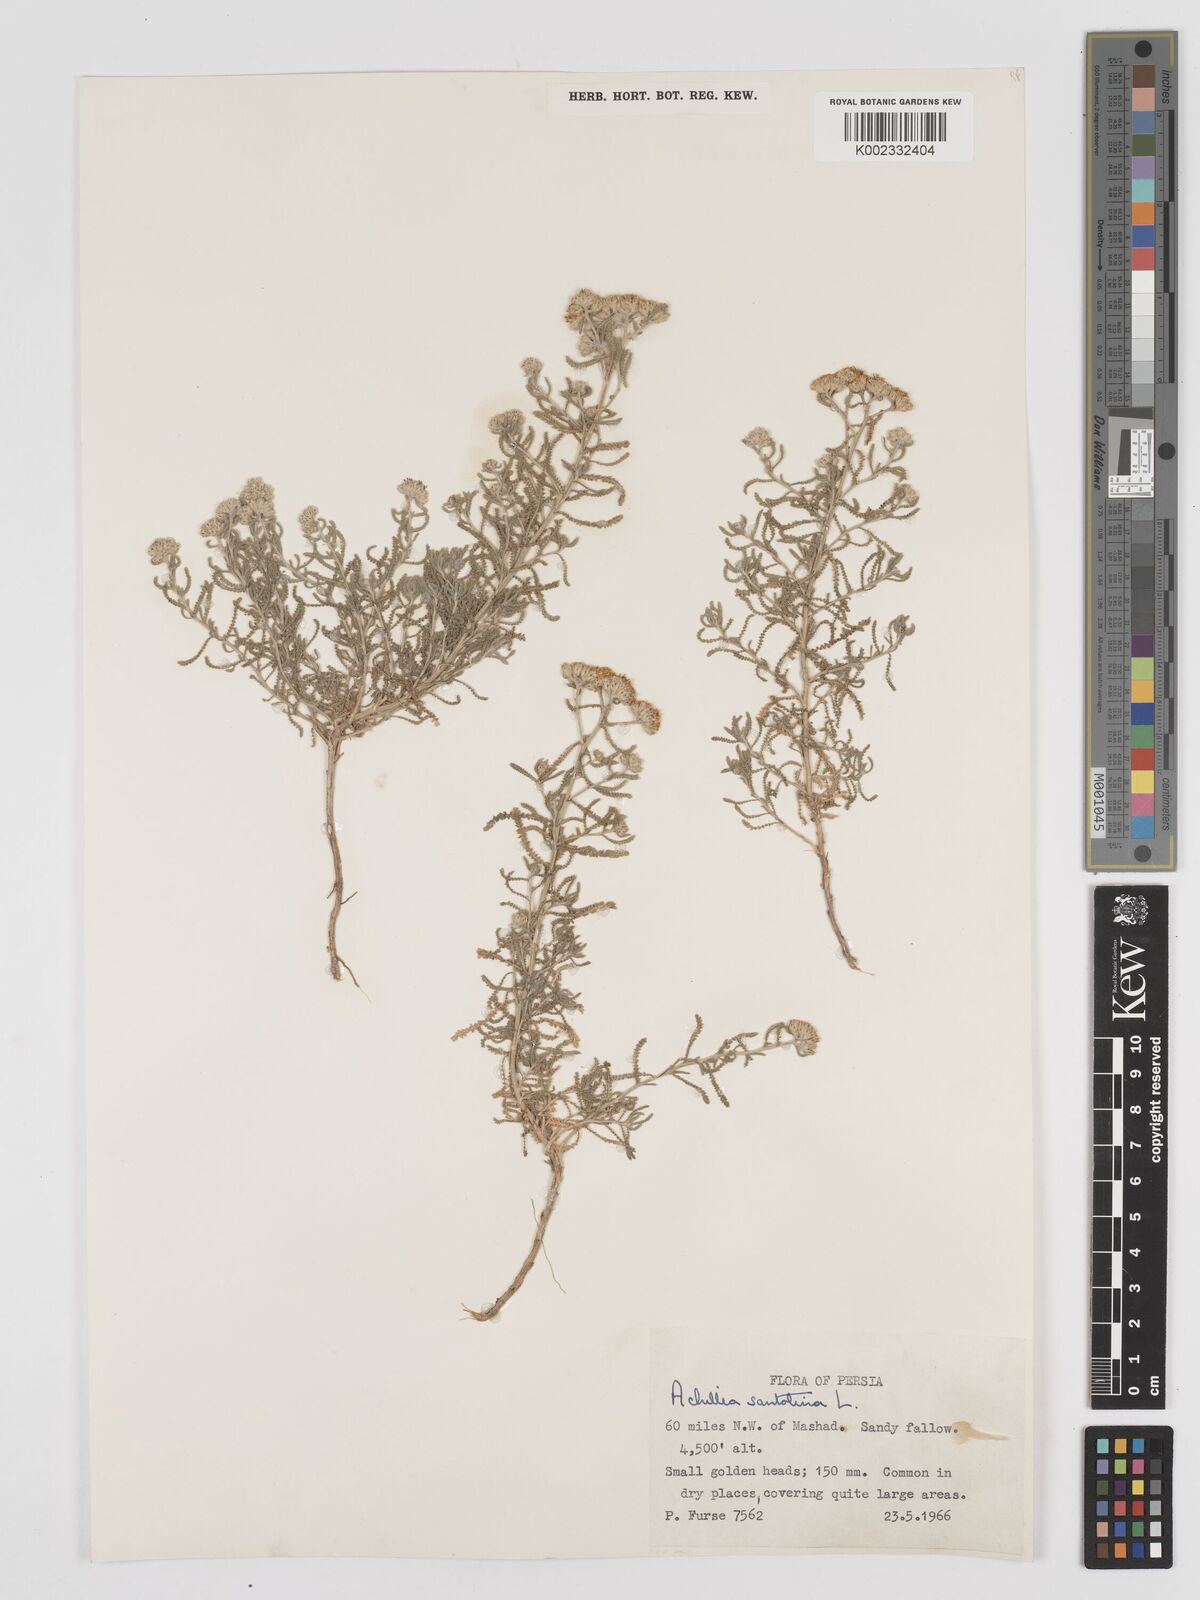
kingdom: Plantae
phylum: Tracheophyta
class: Magnoliopsida
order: Asterales
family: Asteraceae
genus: Achillea
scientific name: Achillea cretica
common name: Chamomile-leaved lavender-cotton
